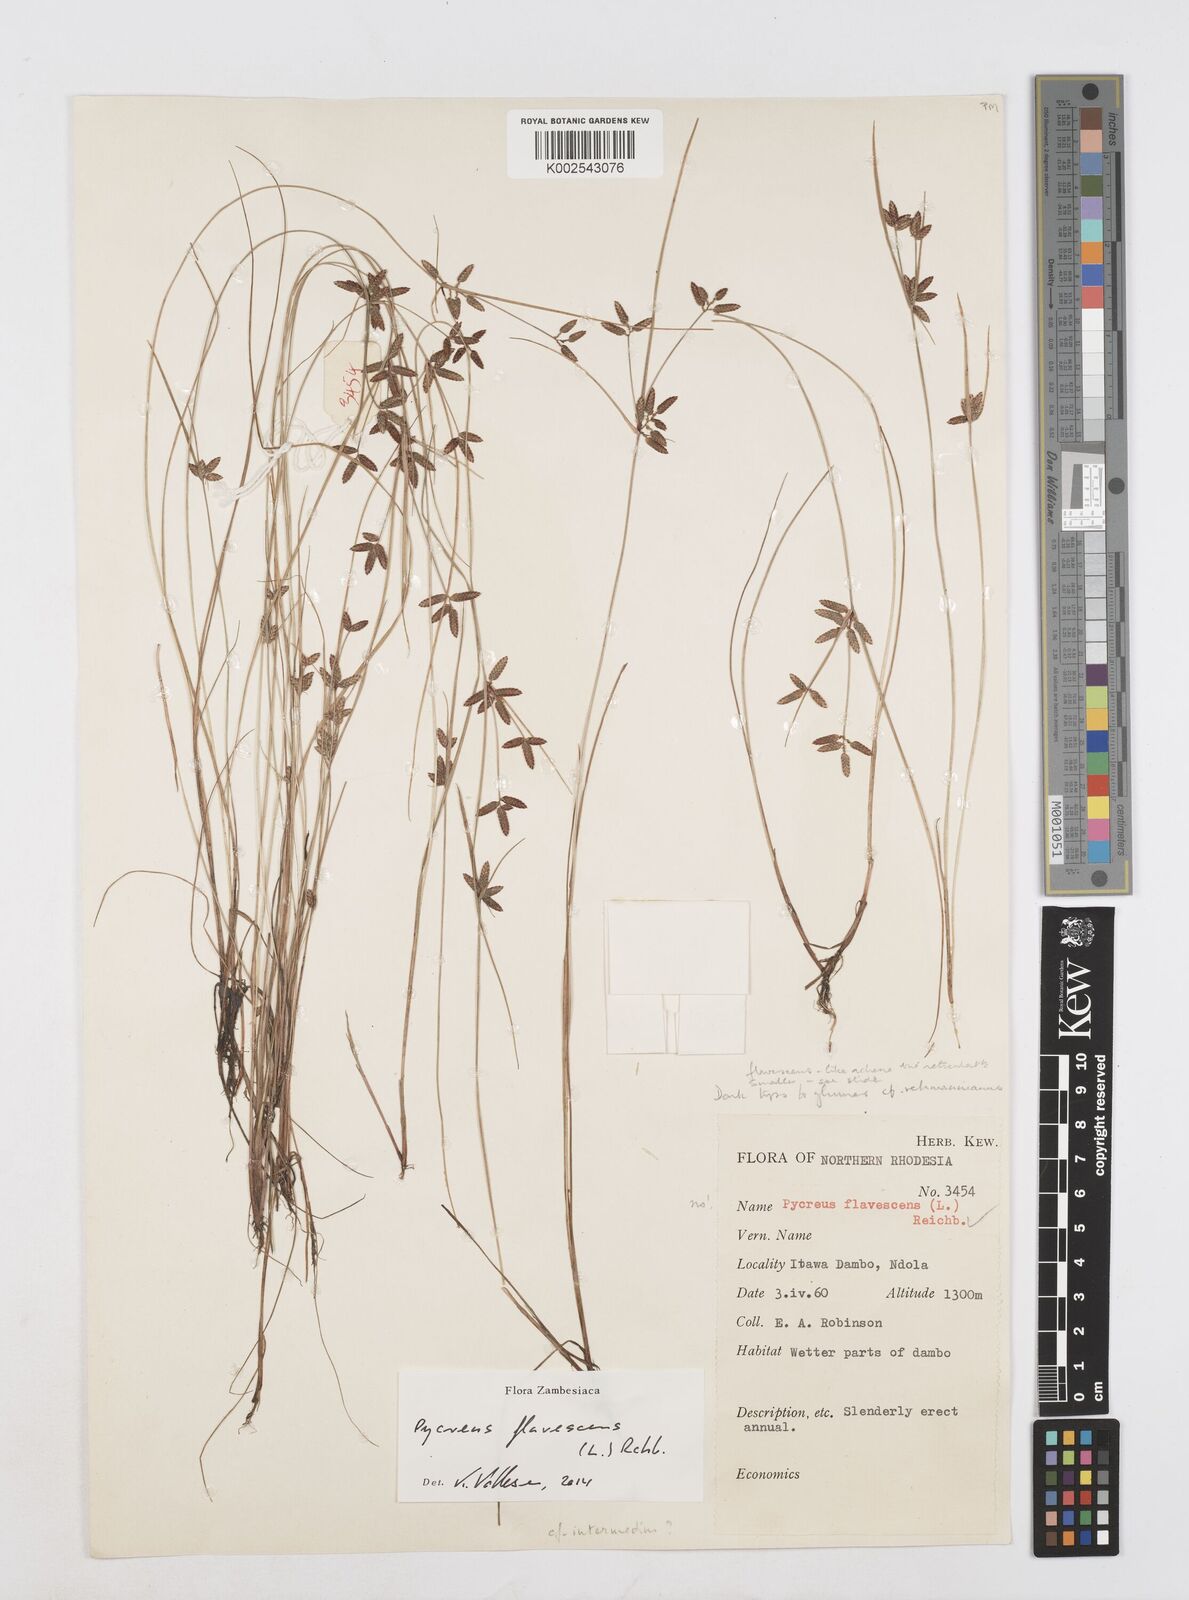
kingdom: Plantae
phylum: Tracheophyta
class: Liliopsida
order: Poales
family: Cyperaceae
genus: Cyperus
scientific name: Cyperus flavescens
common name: Yellow galingale
